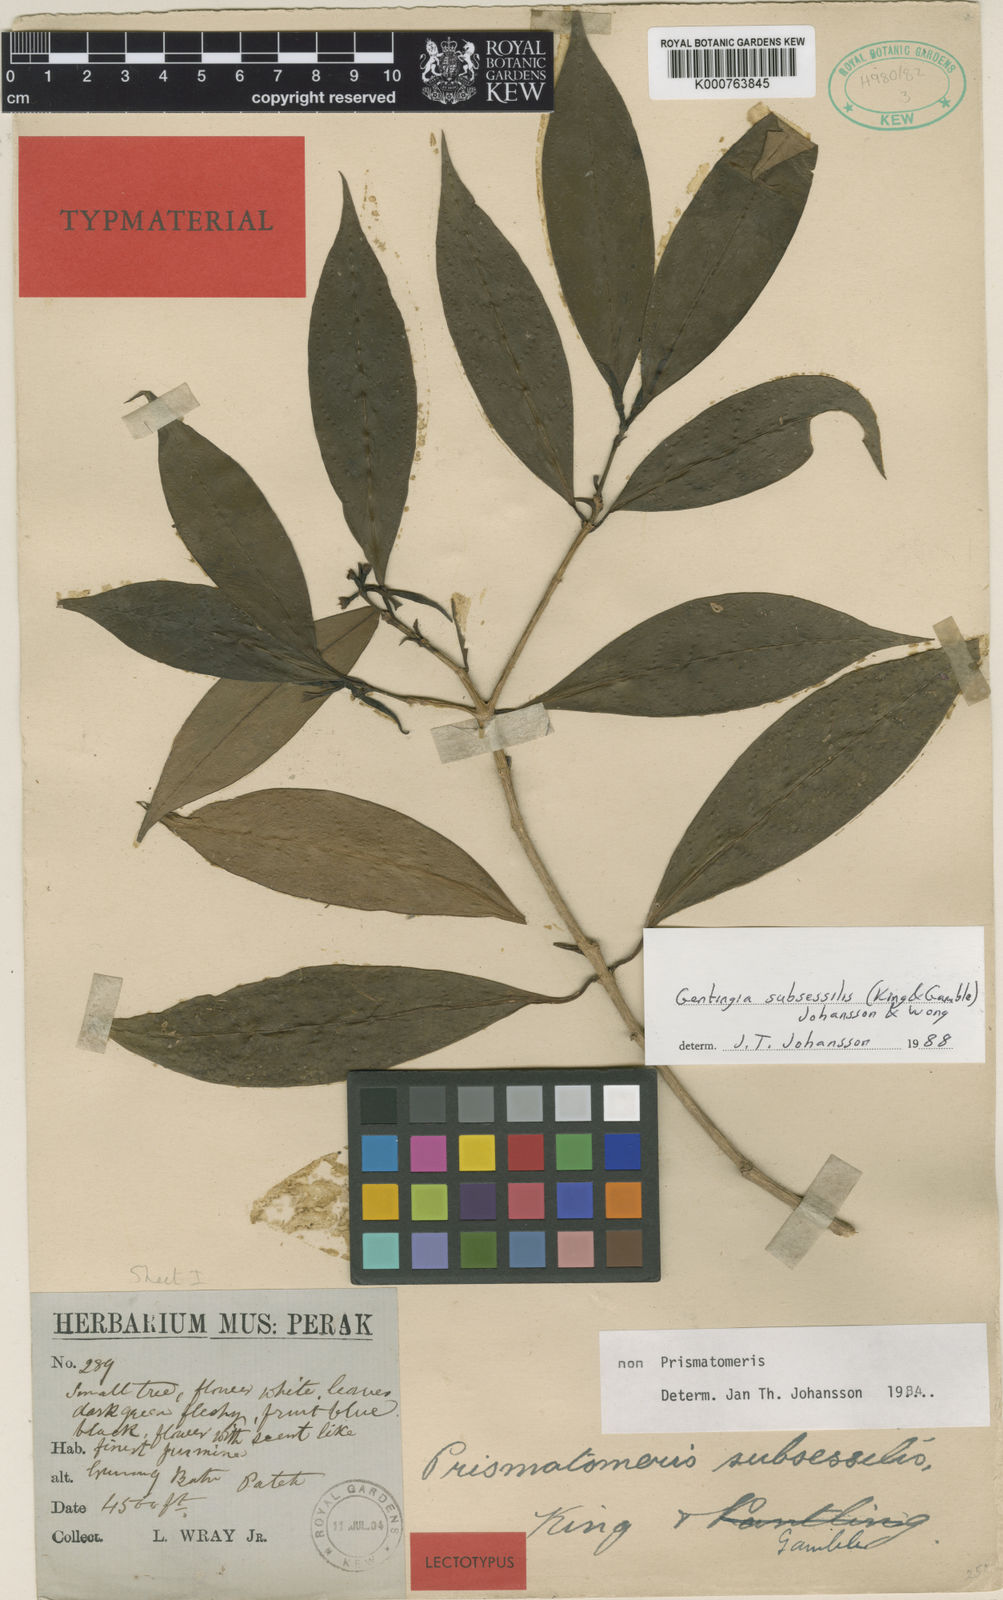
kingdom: Plantae
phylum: Tracheophyta
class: Magnoliopsida
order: Gentianales
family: Rubiaceae
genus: Rennellia
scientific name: Rennellia subsessilis
